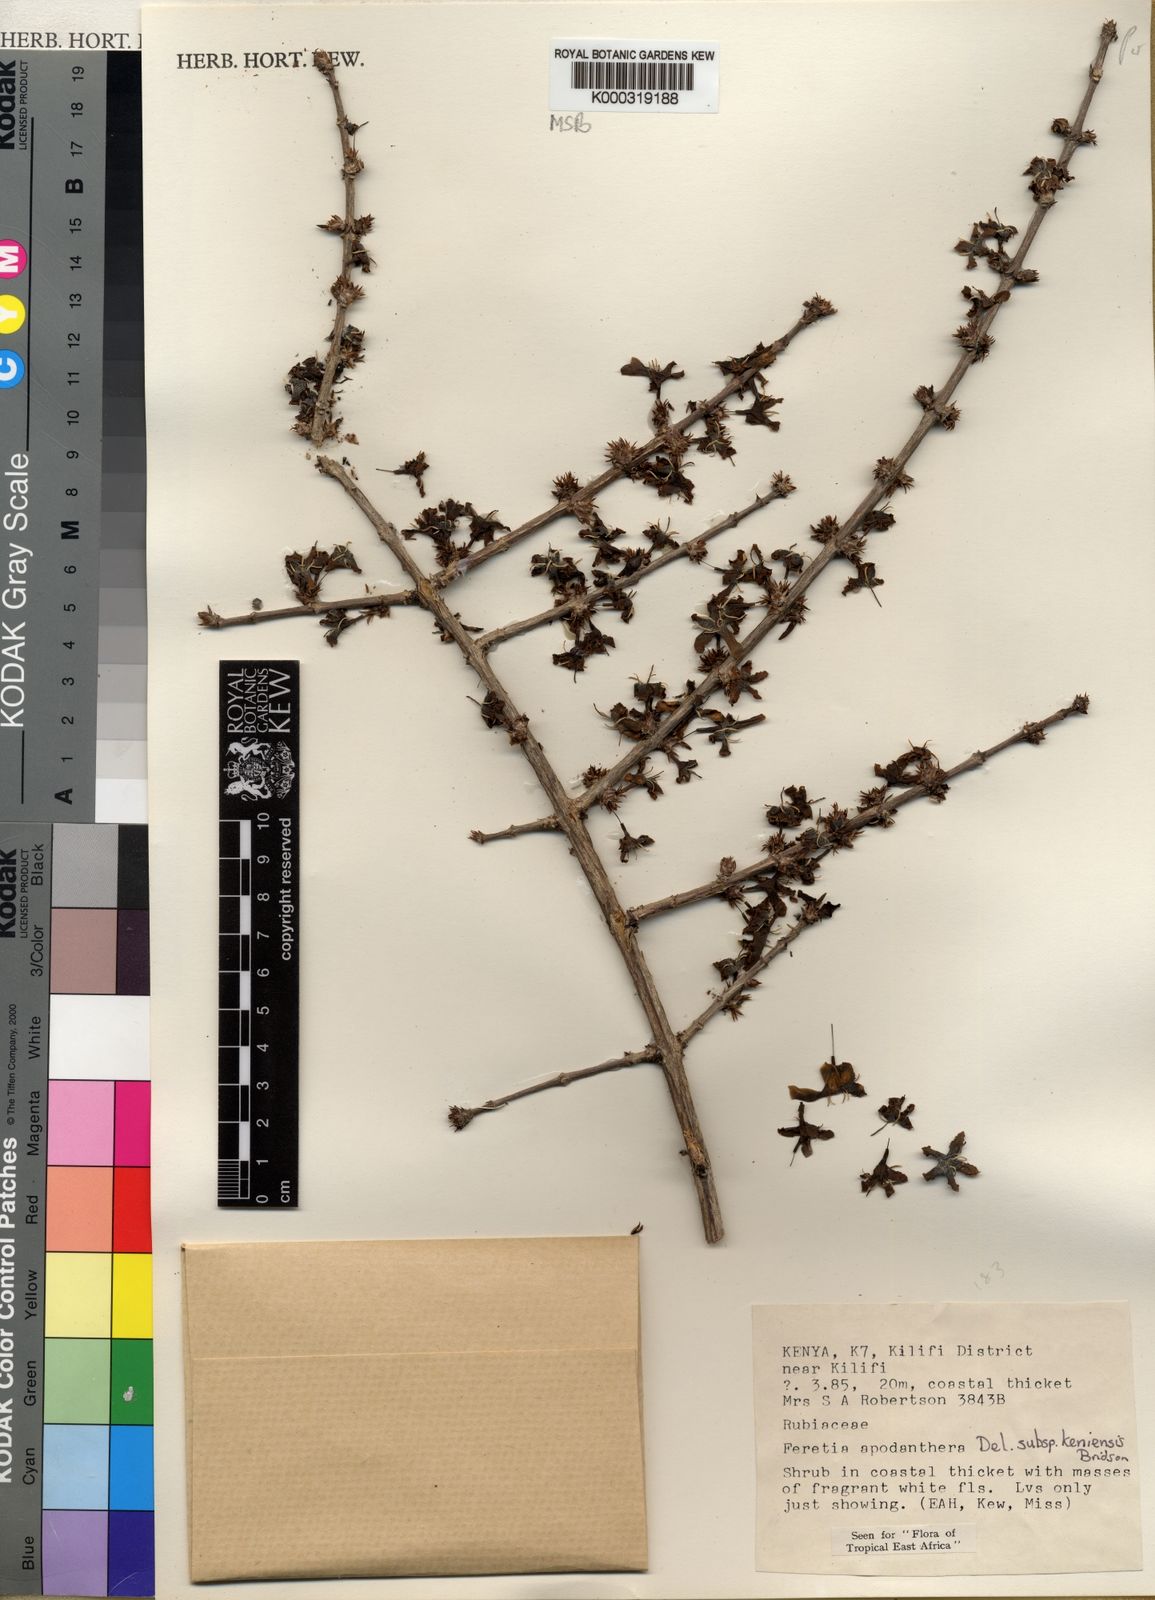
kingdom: Plantae
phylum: Tracheophyta
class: Magnoliopsida
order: Gentianales
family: Rubiaceae
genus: Feretia
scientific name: Feretia apodanthera
